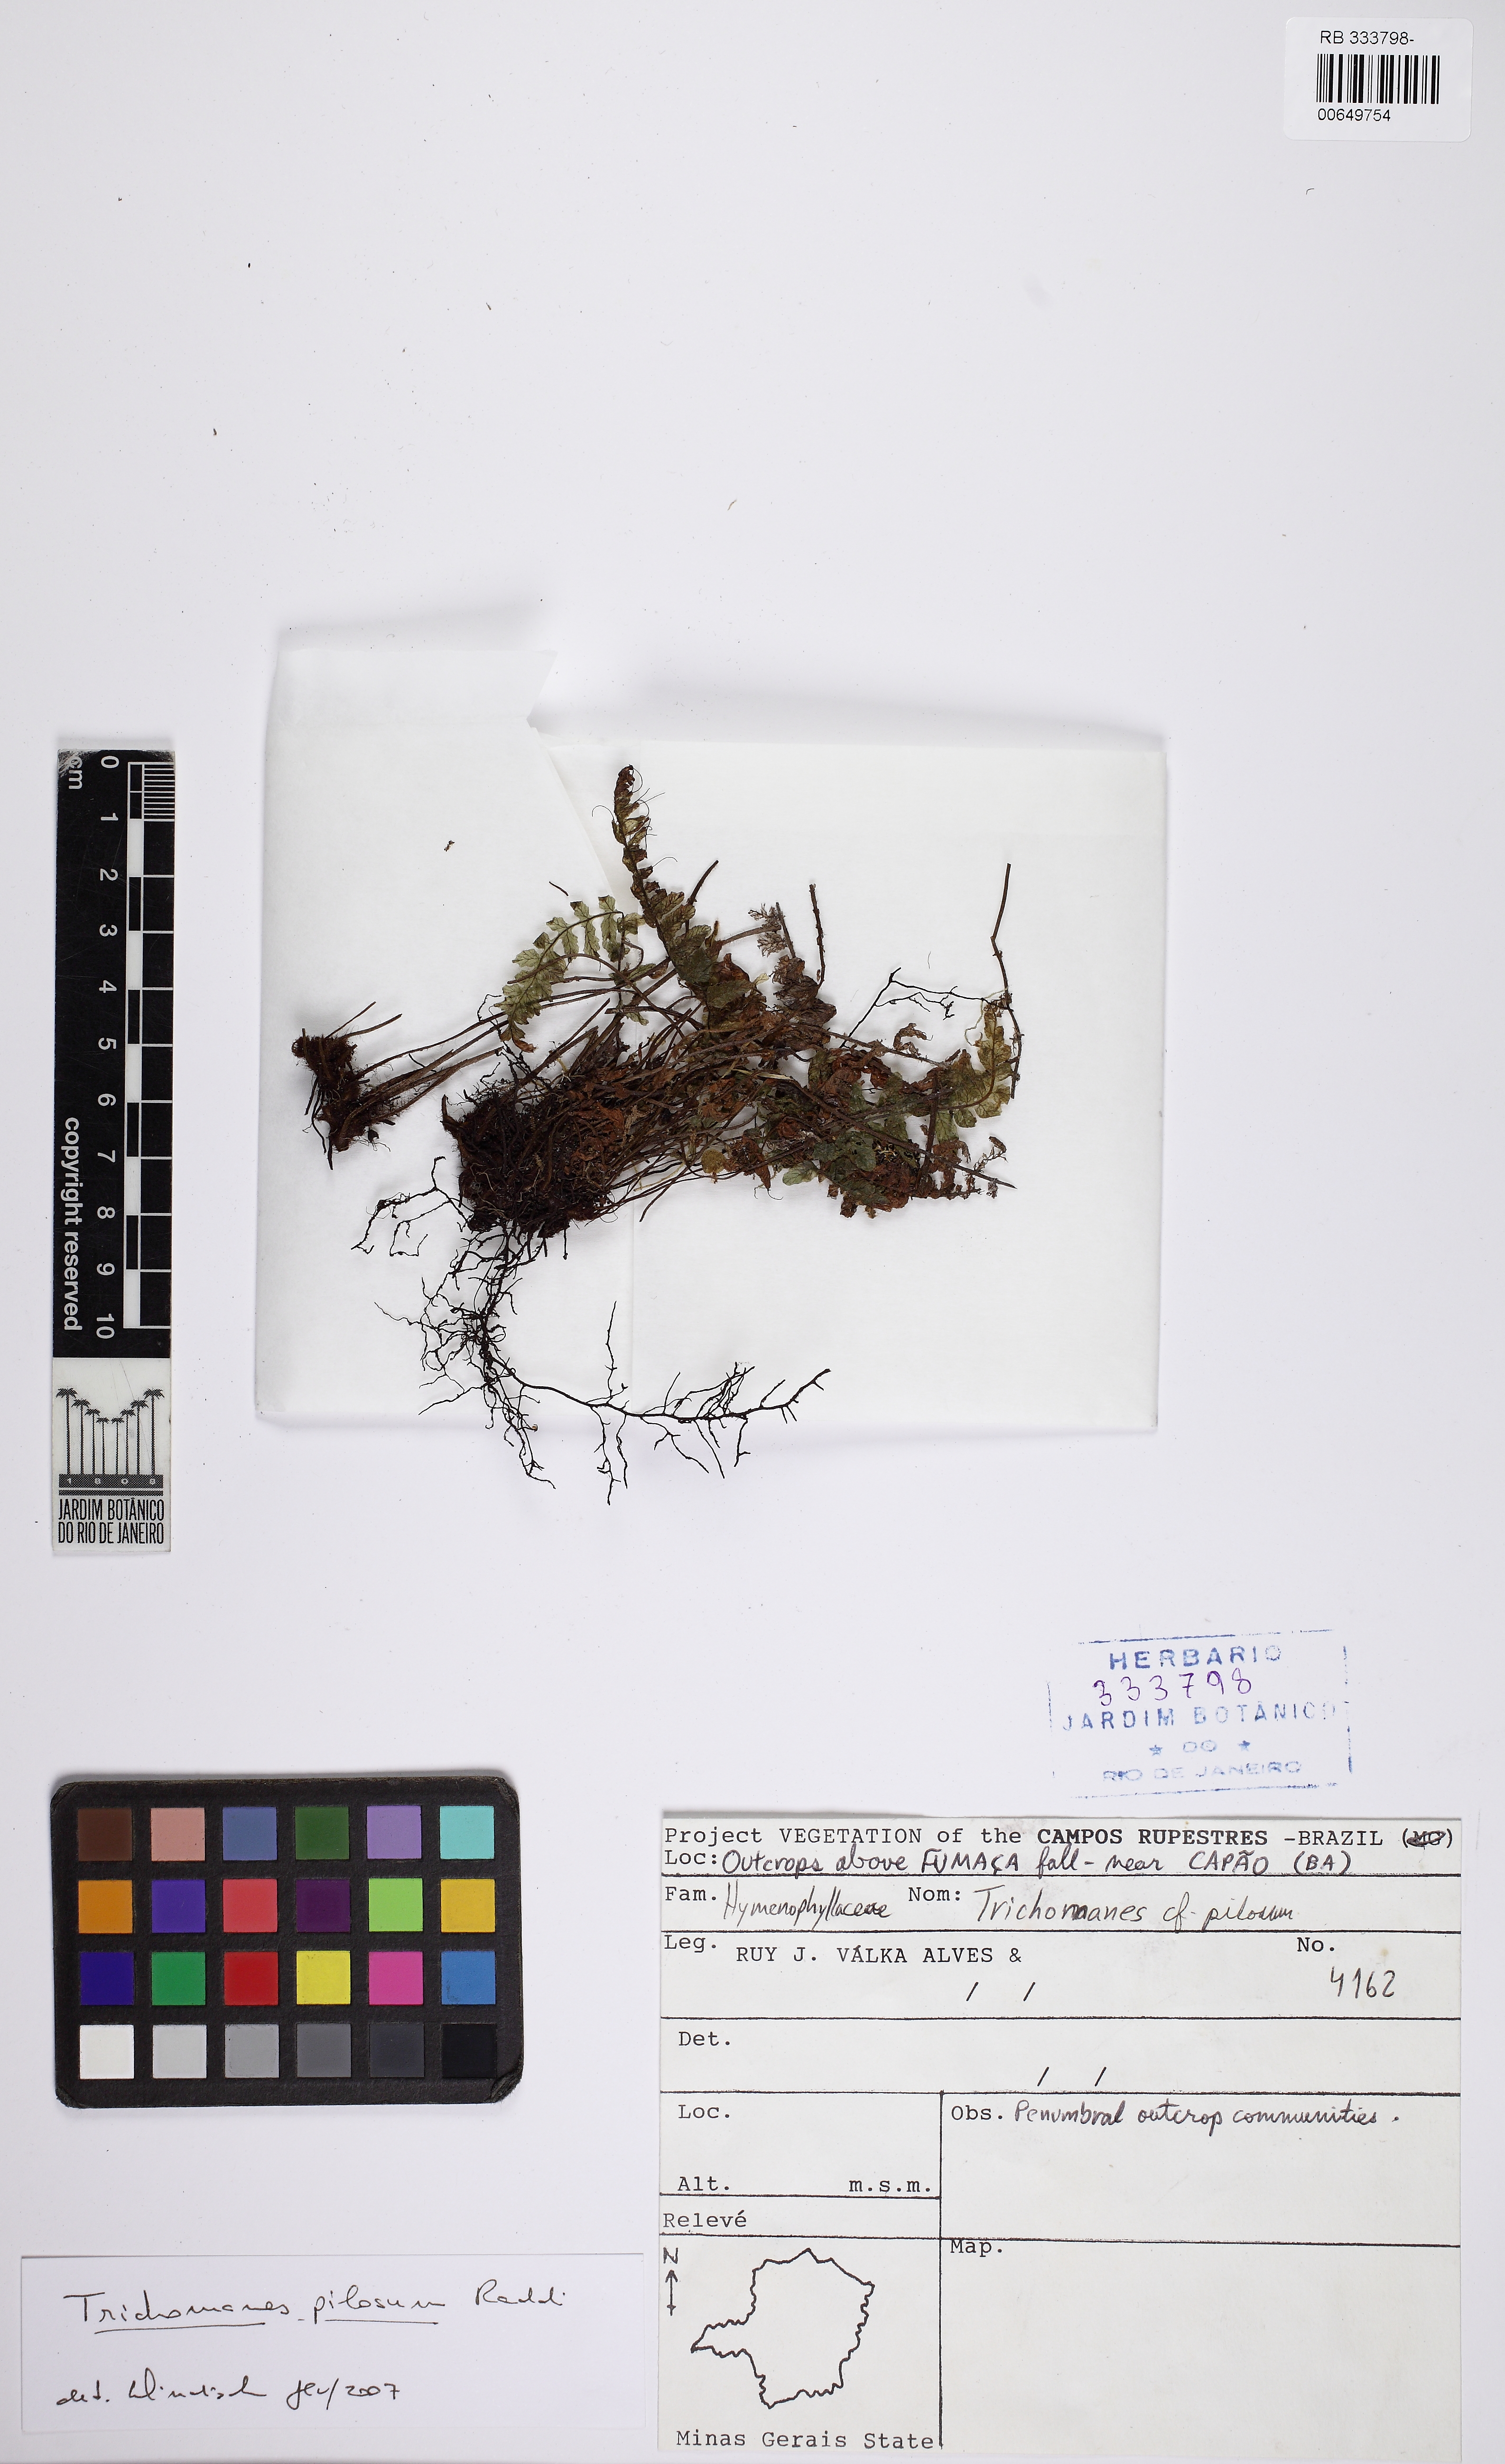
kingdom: Plantae
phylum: Tracheophyta
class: Polypodiopsida
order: Hymenophyllales
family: Hymenophyllaceae
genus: Trichomanes
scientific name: Trichomanes pilosum
